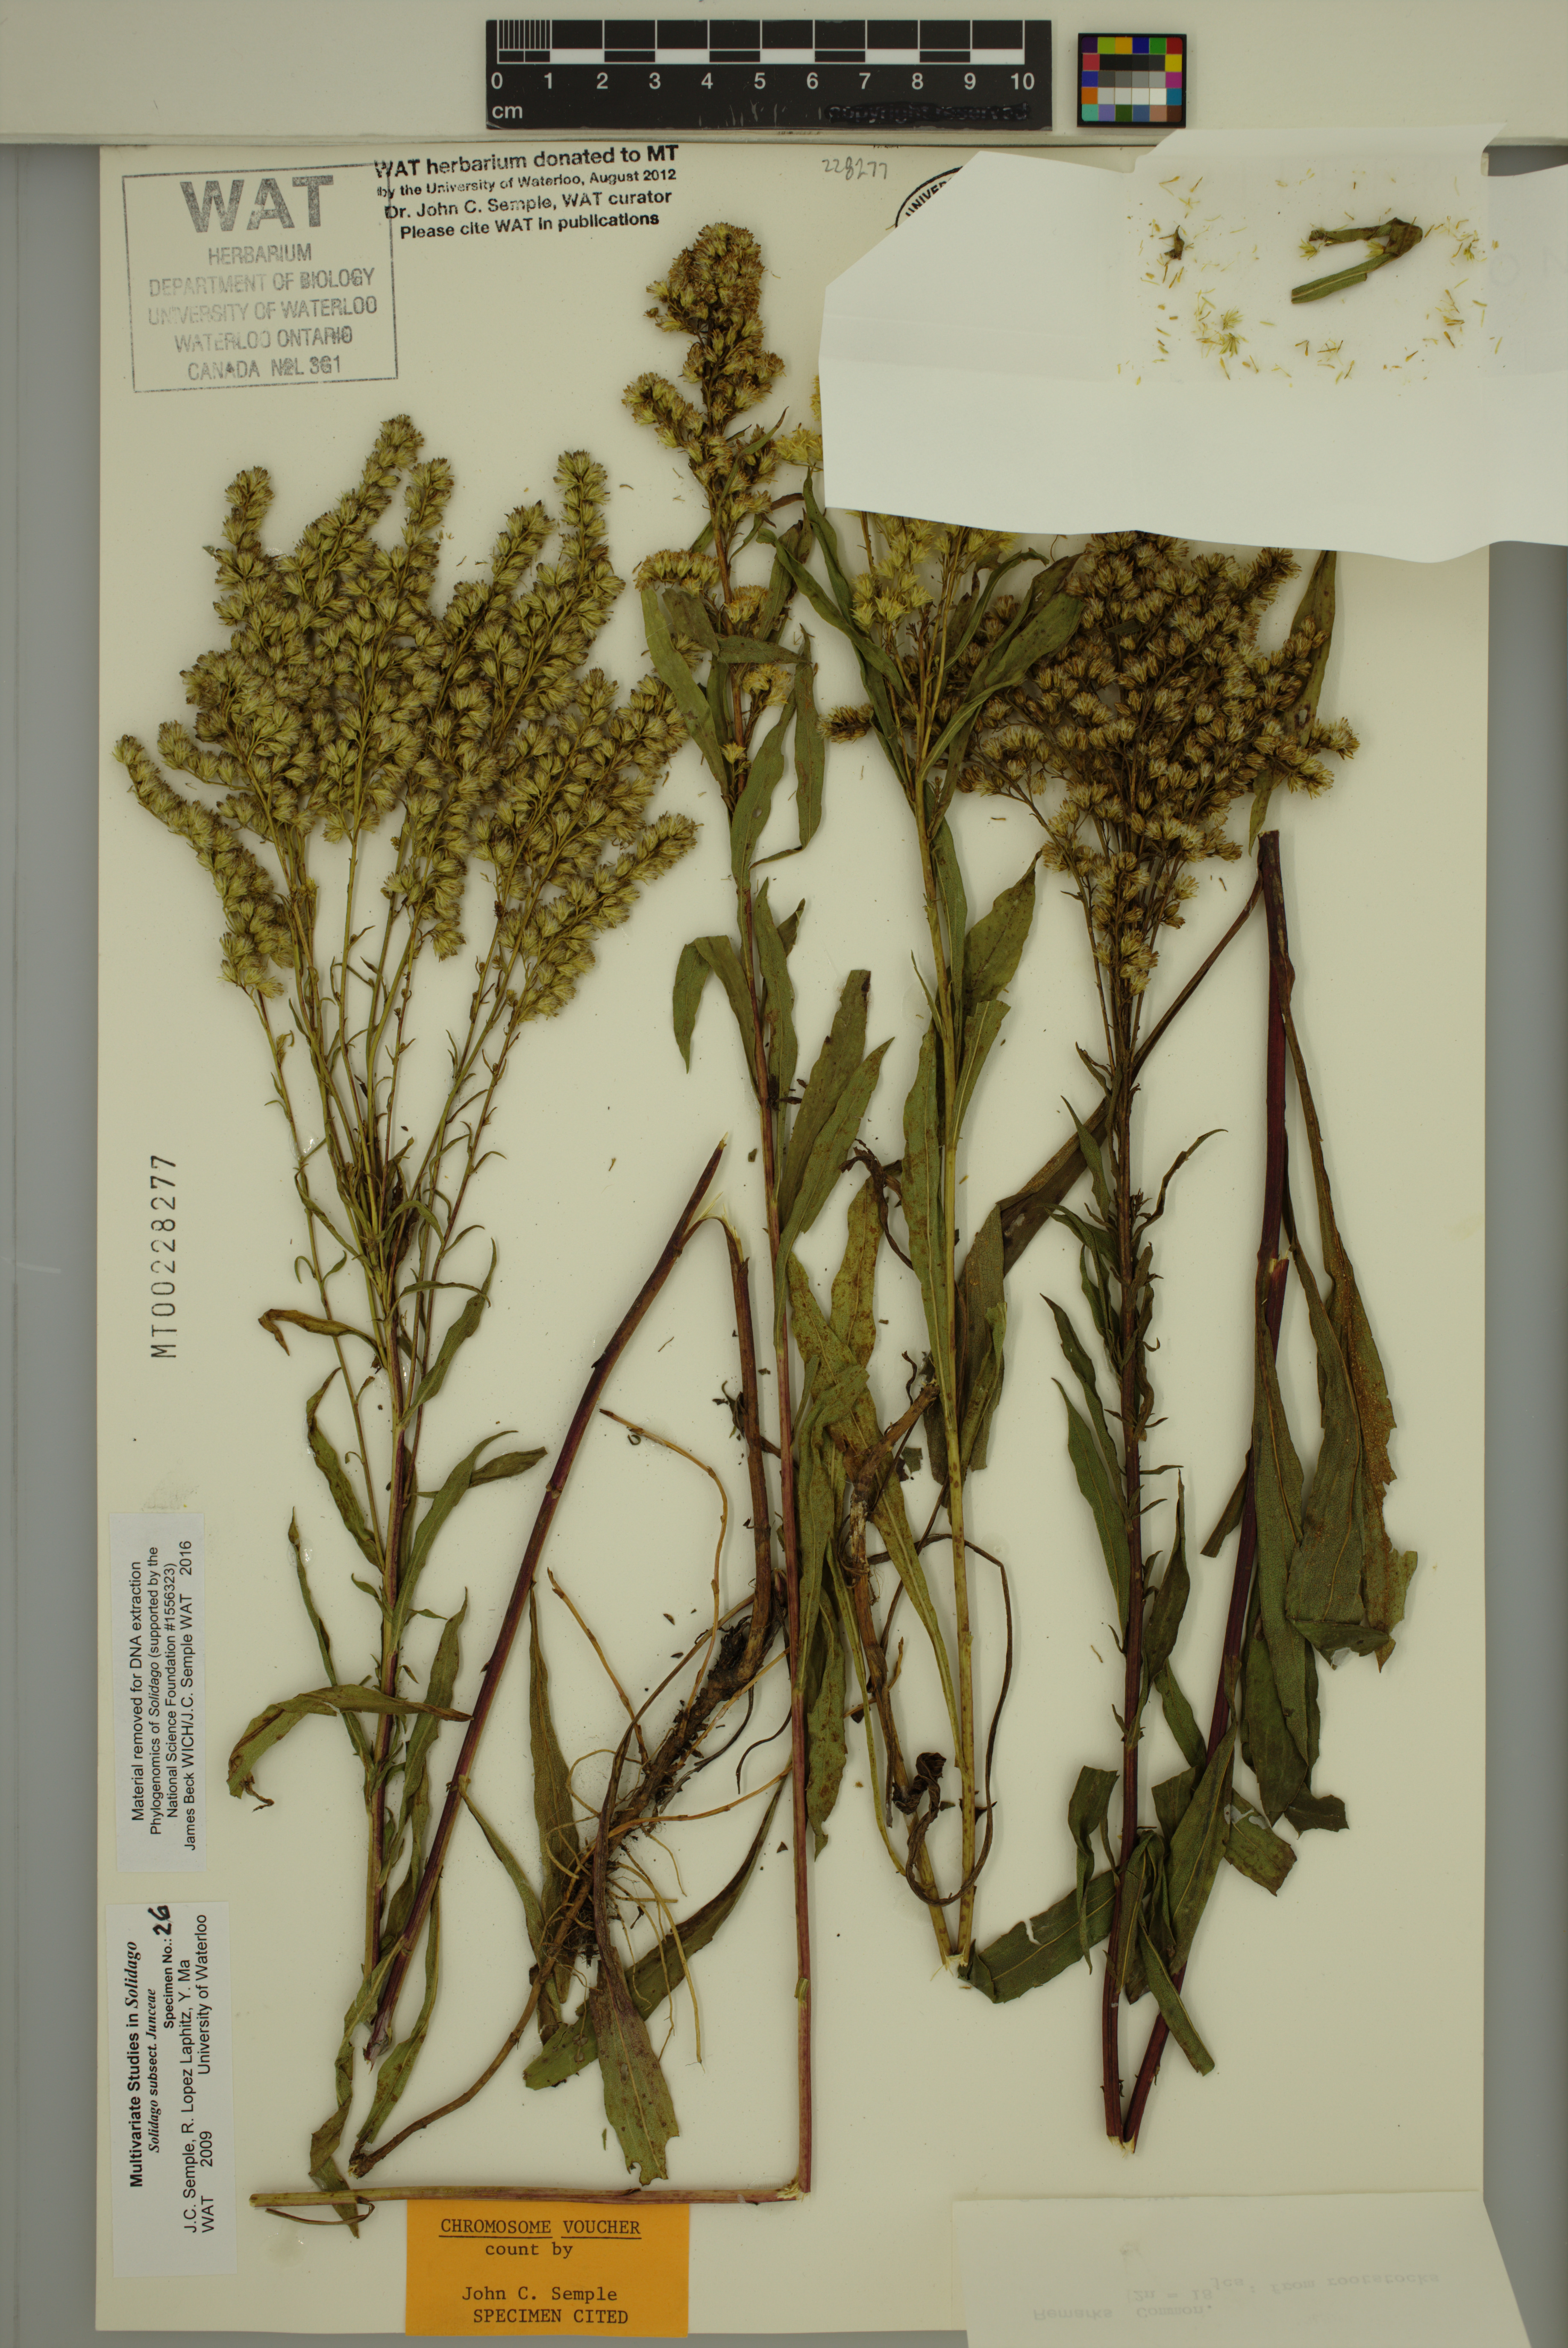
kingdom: Plantae
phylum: Tracheophyta
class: Magnoliopsida
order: Asterales
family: Asteraceae
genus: Solidago
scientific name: Solidago missouriensis
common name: Prairie goldenrod
